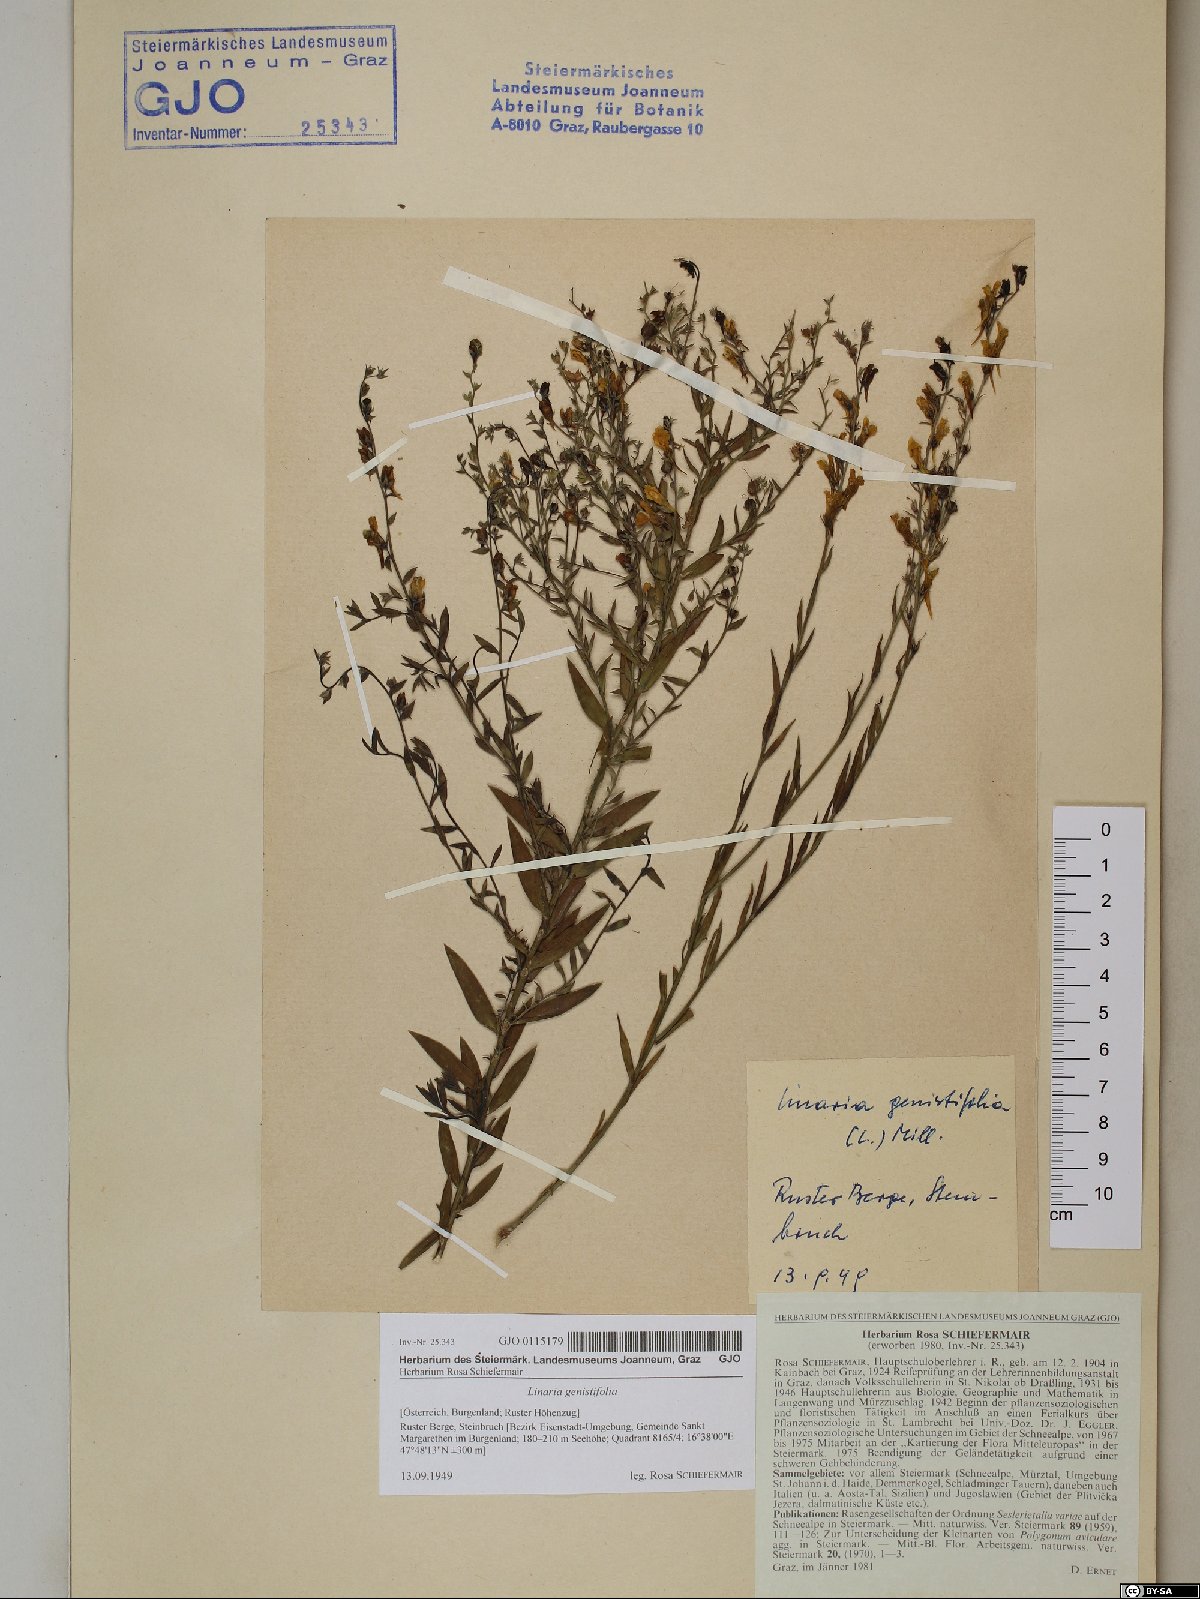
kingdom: Plantae
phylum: Tracheophyta
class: Magnoliopsida
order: Lamiales
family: Plantaginaceae
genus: Linaria
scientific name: Linaria genistifolia
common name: Broomleaf toadflax
